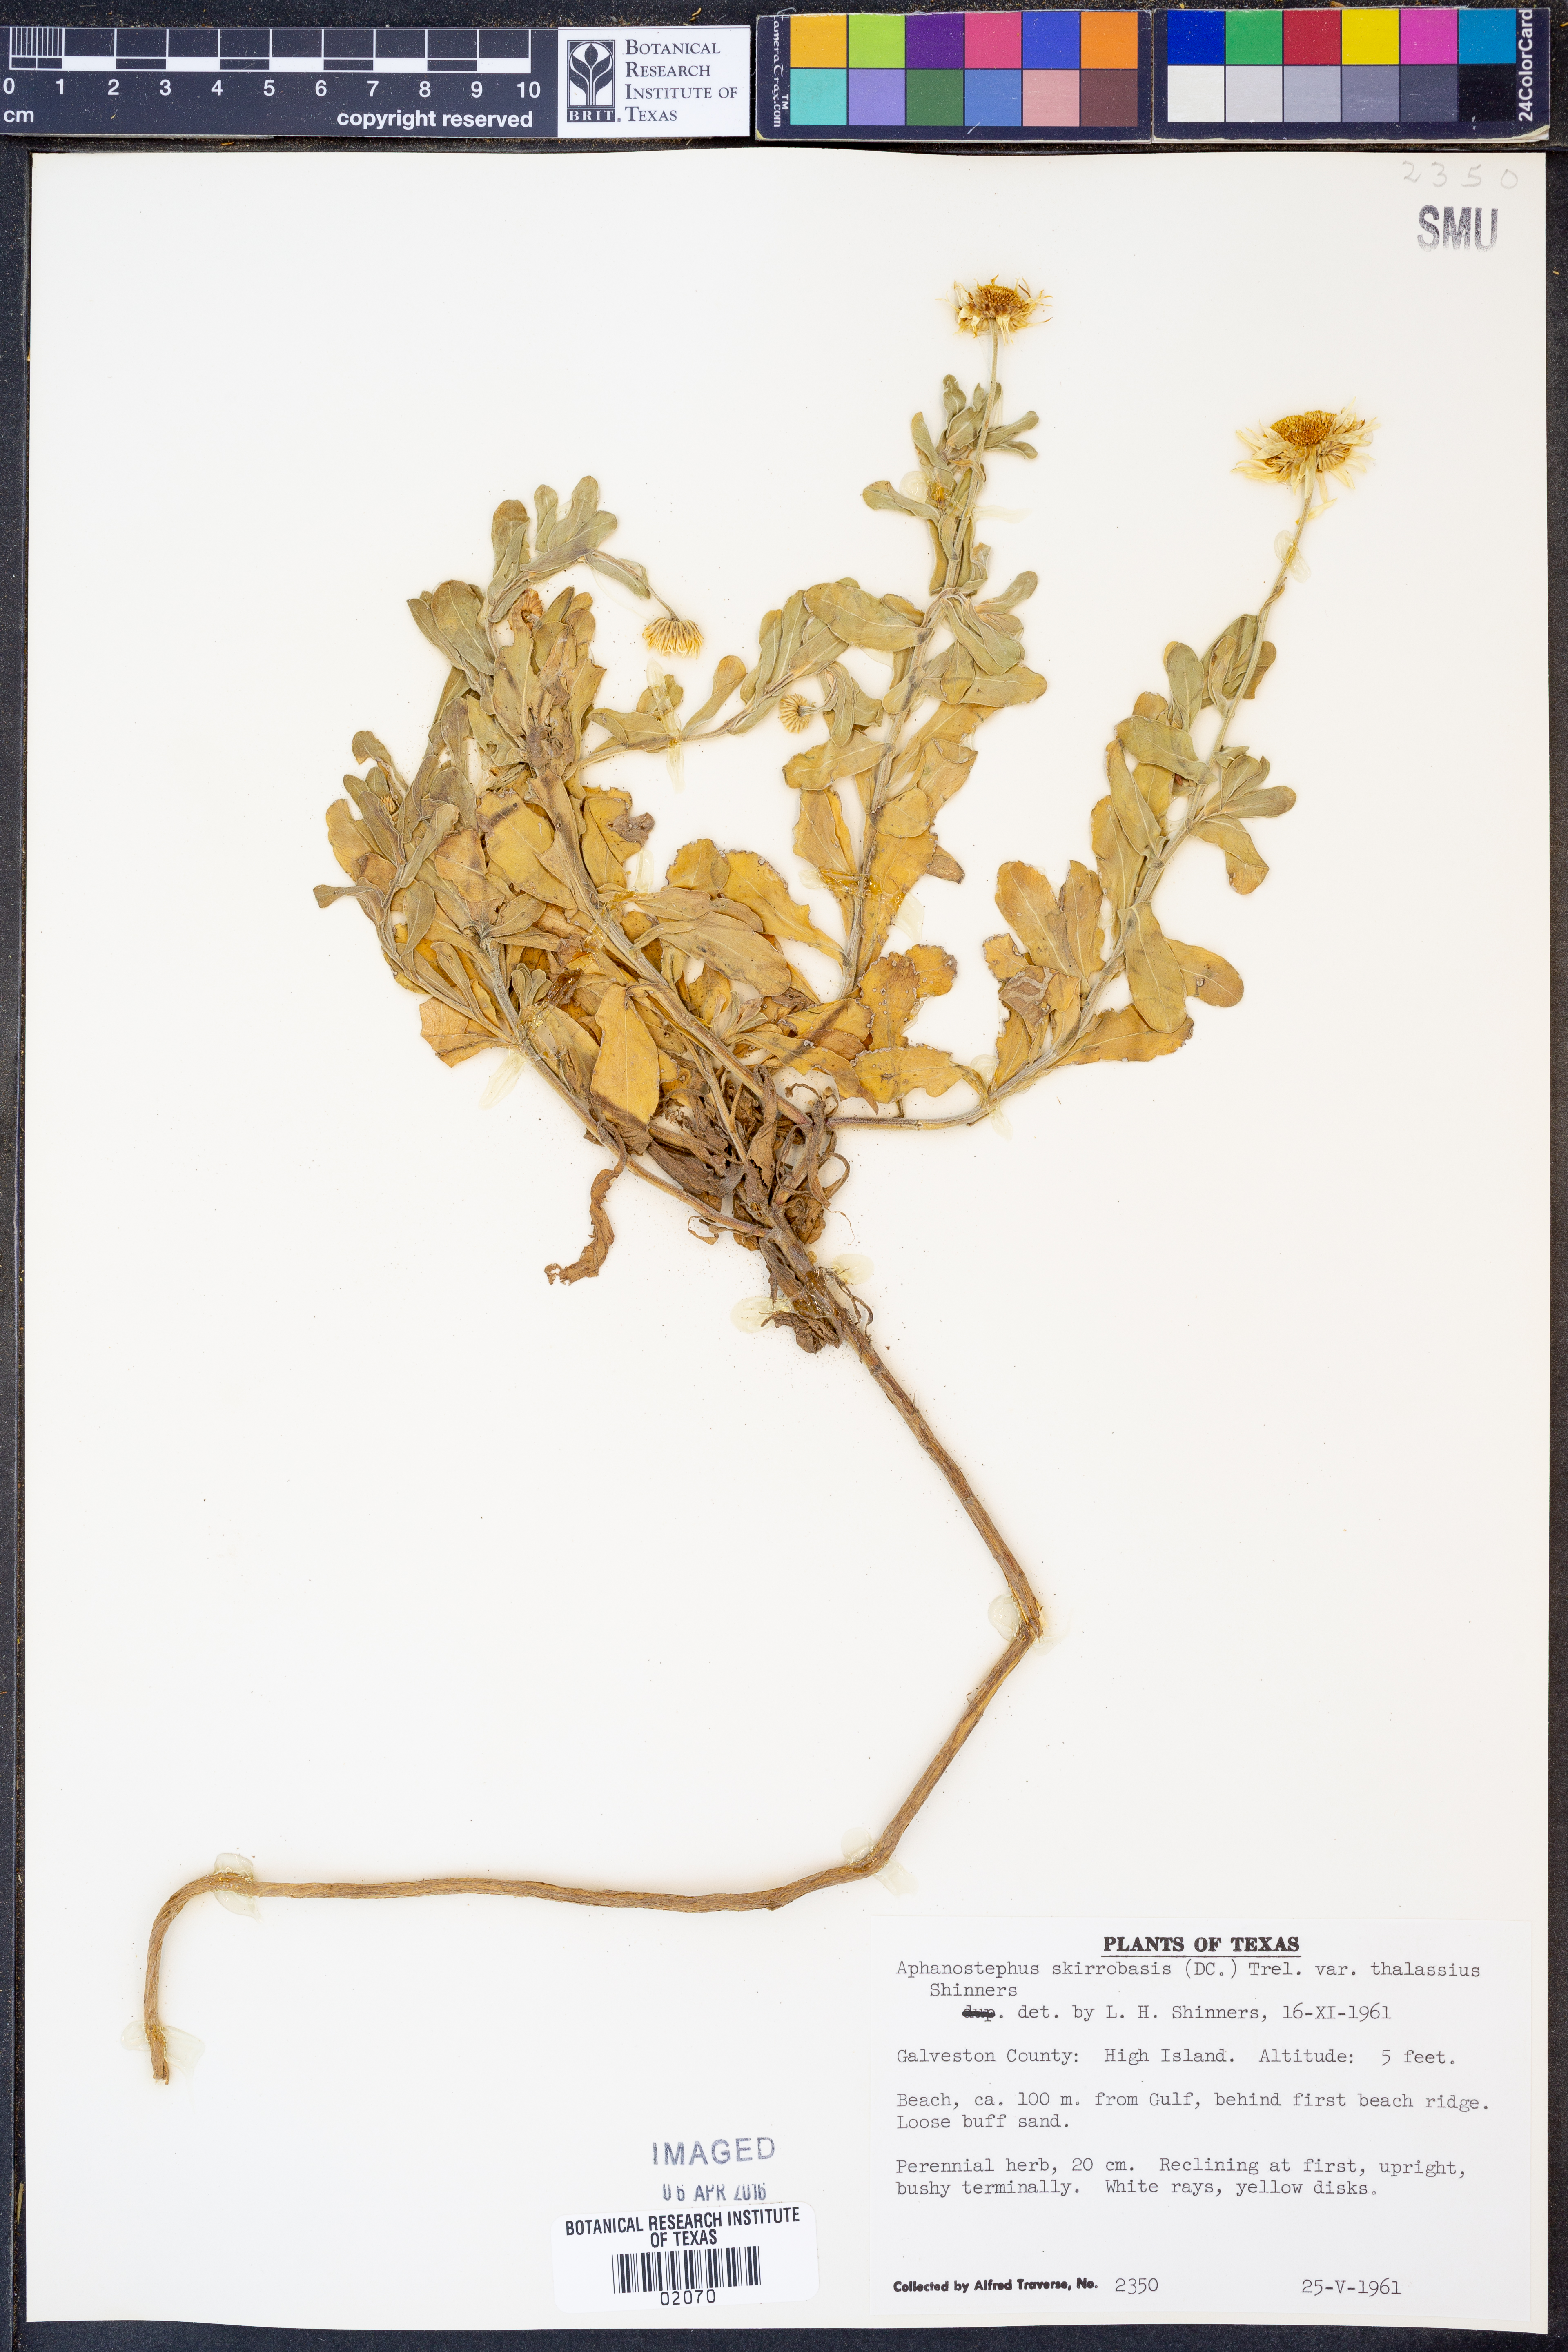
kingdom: Plantae
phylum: Tracheophyta
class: Magnoliopsida
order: Asterales
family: Asteraceae
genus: Aphanostephus
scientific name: Aphanostephus skirrhobasis
